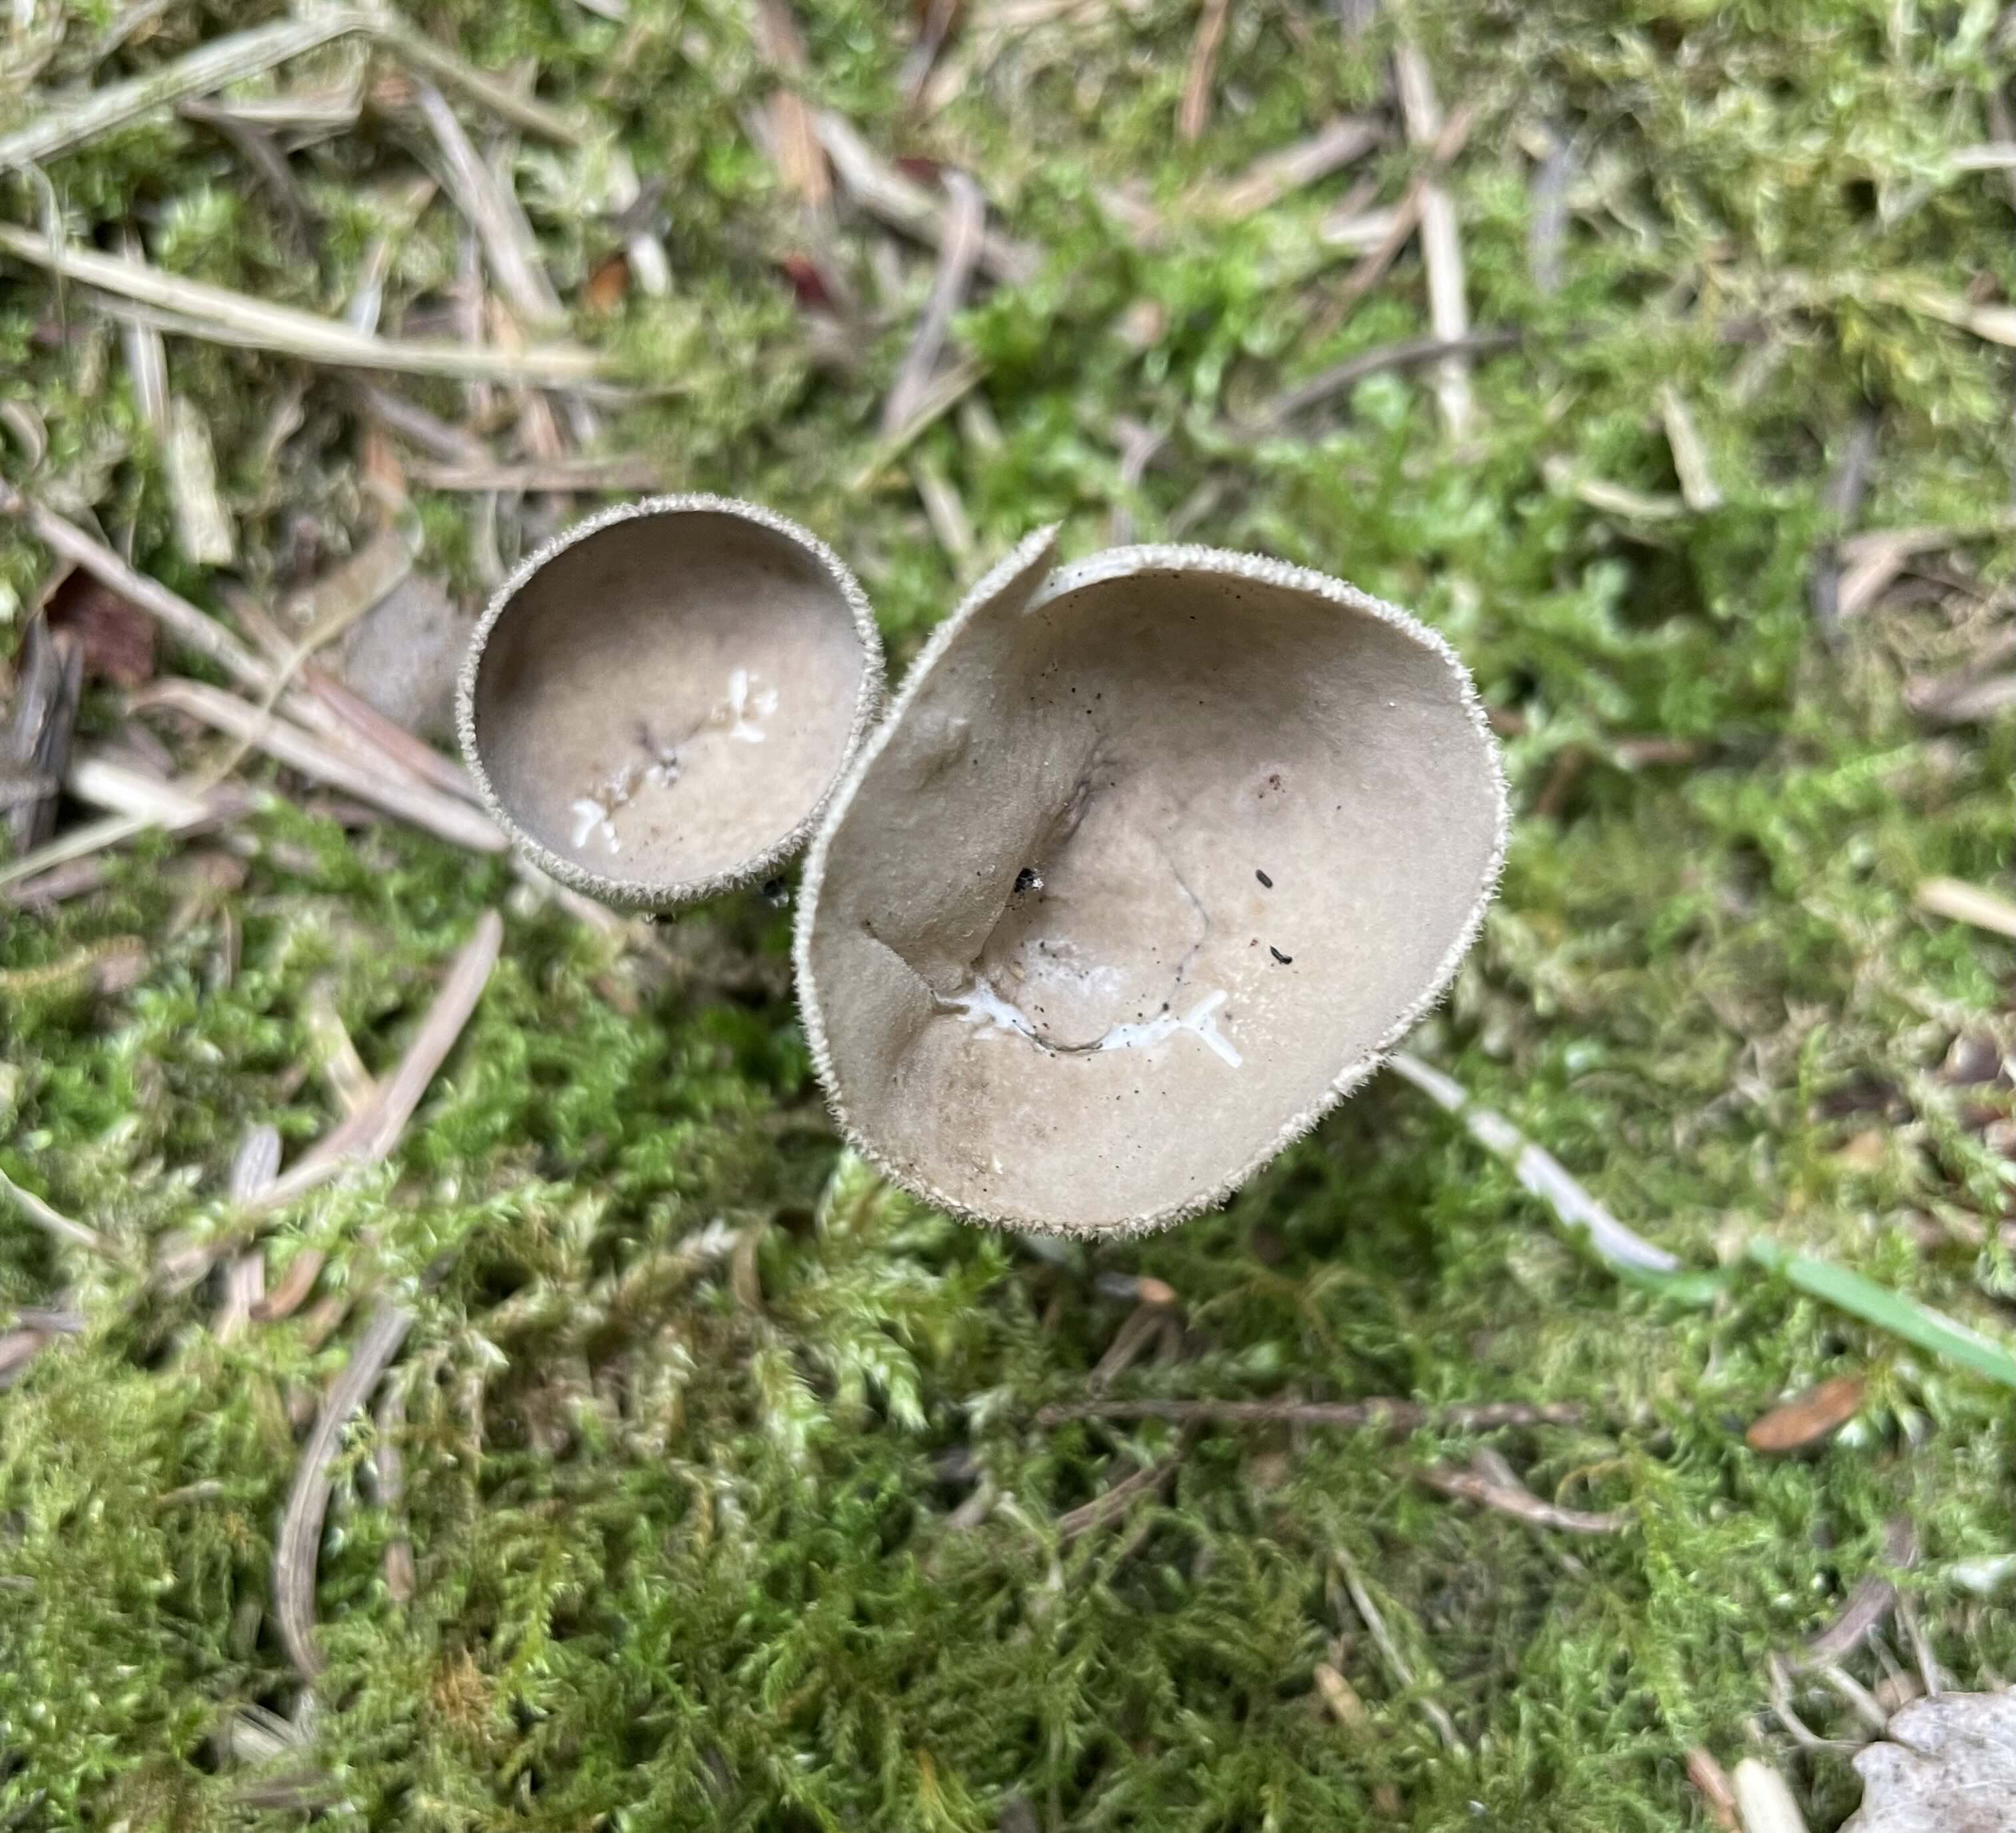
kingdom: Fungi
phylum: Ascomycota
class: Pezizomycetes
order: Pezizales
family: Helvellaceae
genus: Helvella
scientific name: Helvella
